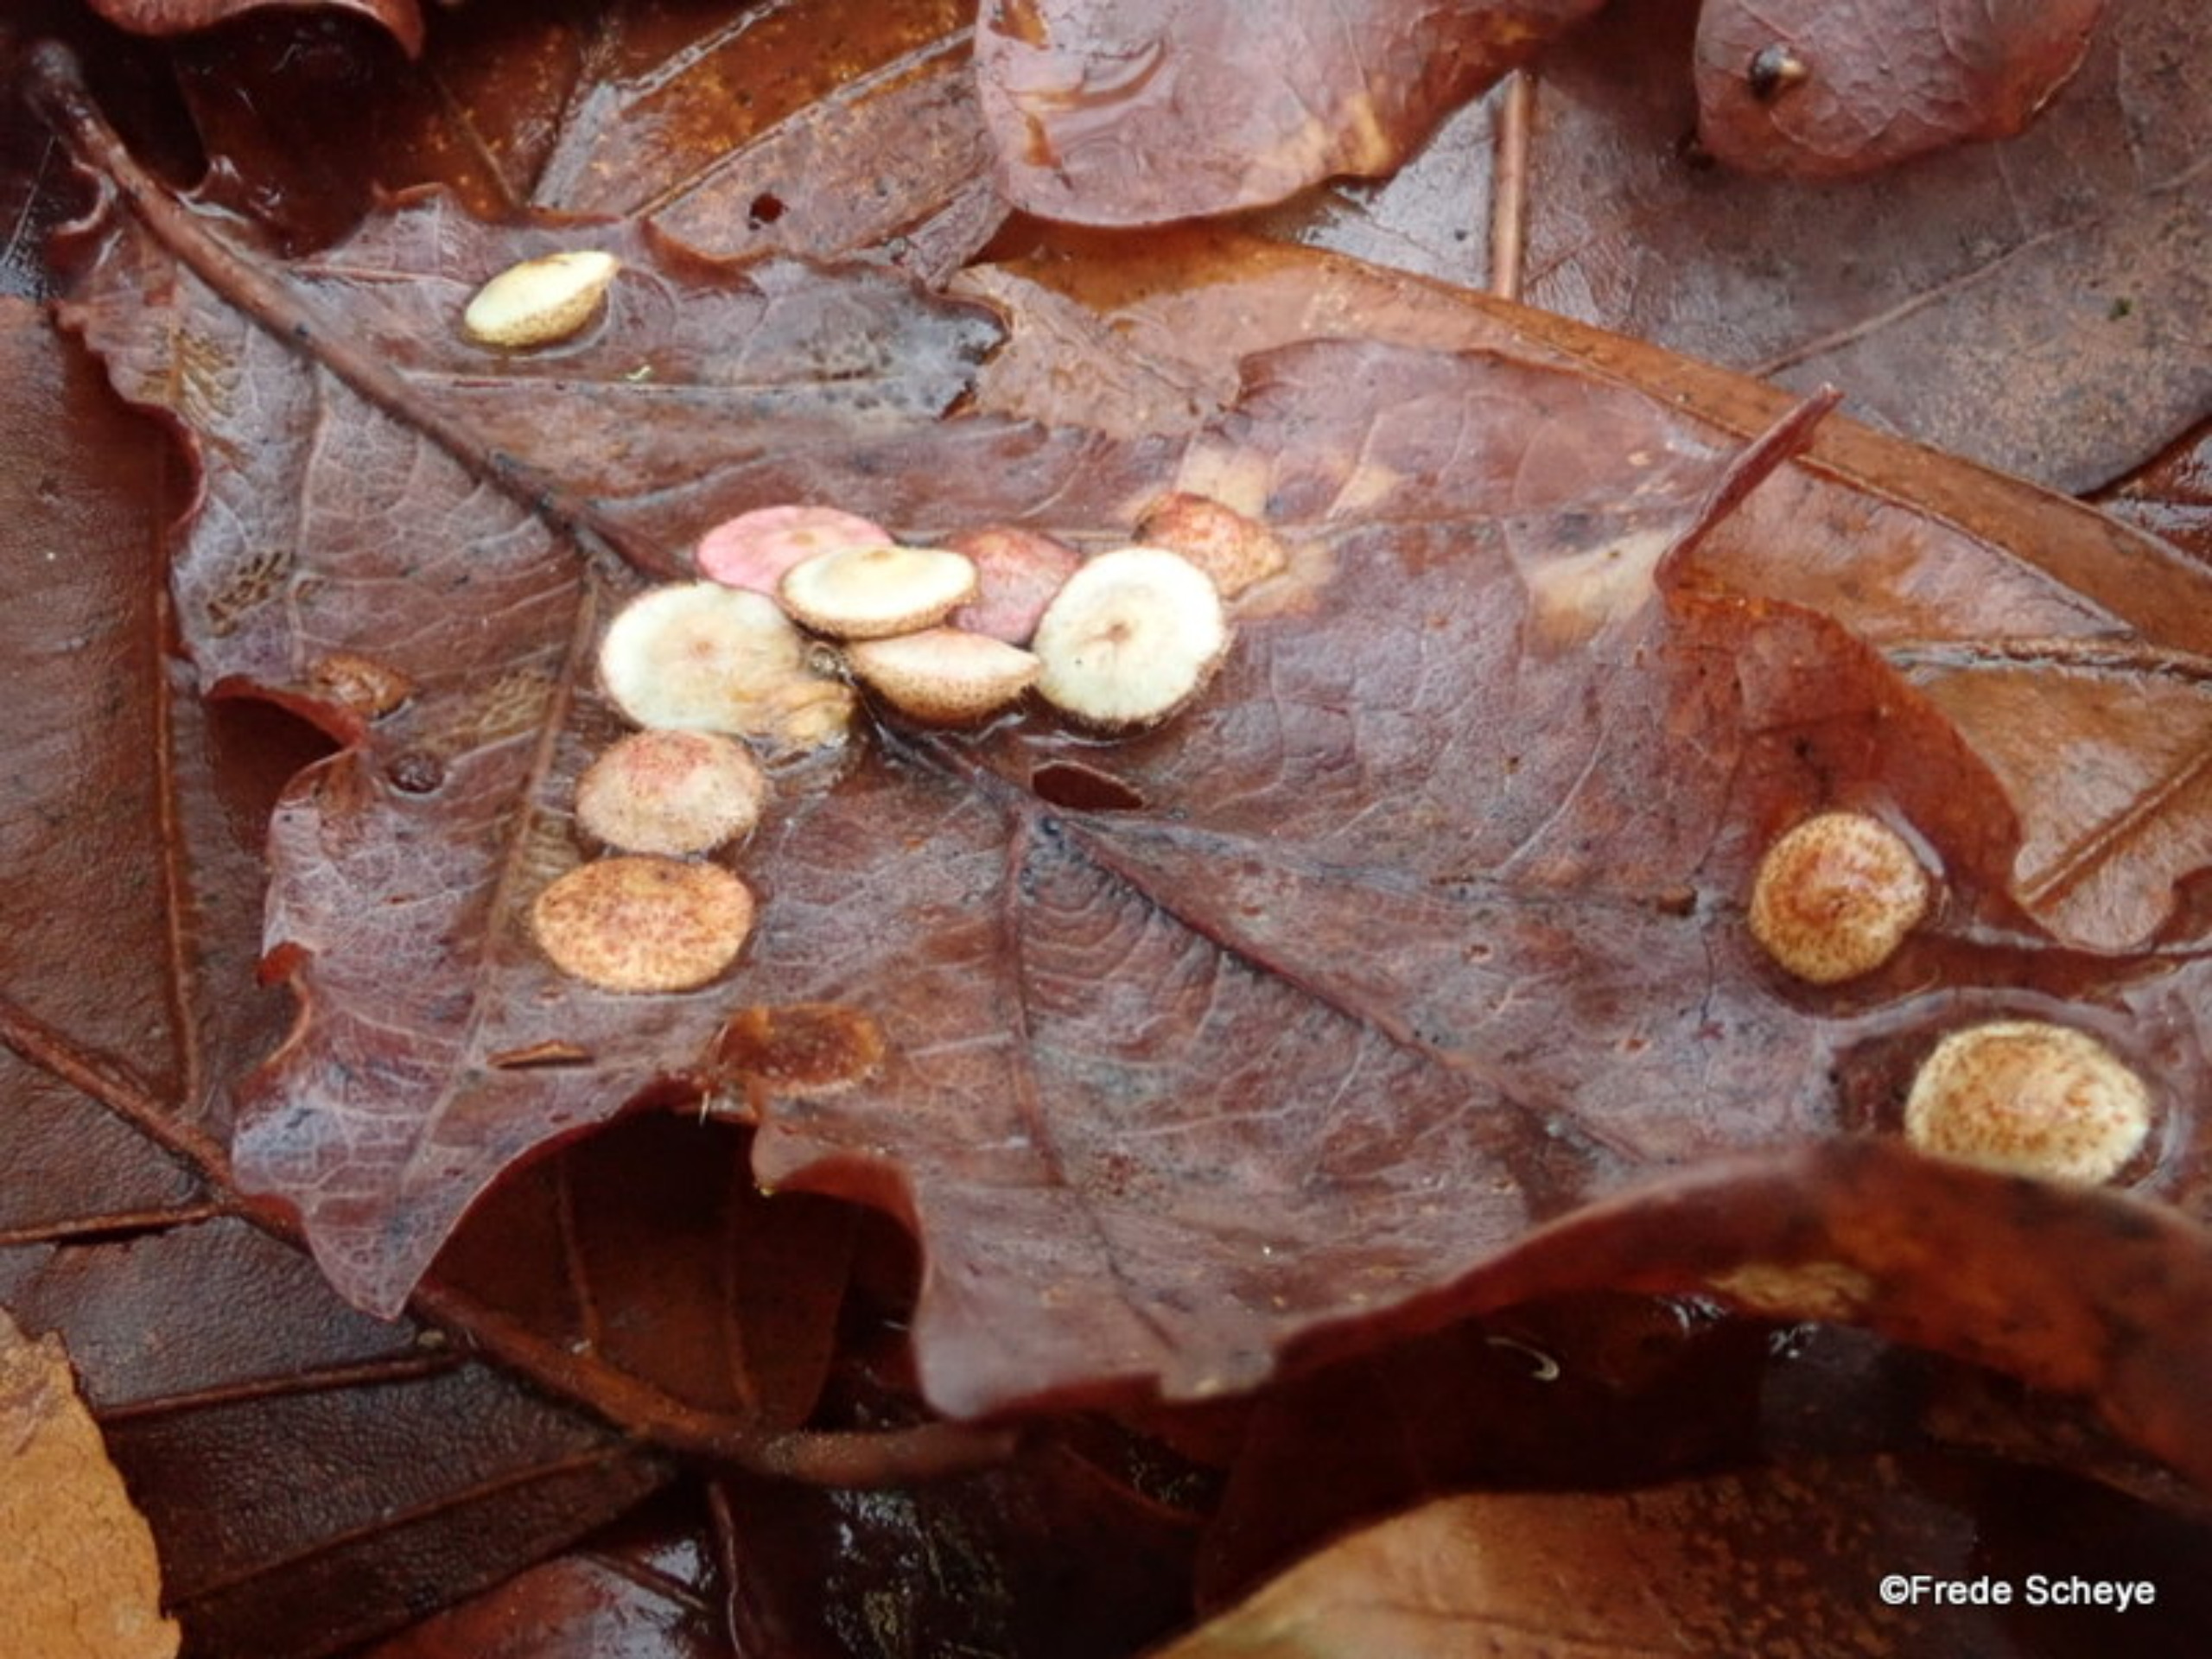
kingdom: Animalia
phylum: Arthropoda
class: Insecta
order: Hymenoptera
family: Cynipidae
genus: Neuroterus
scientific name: Neuroterus quercusbaccarum
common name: Linsegalhveps
